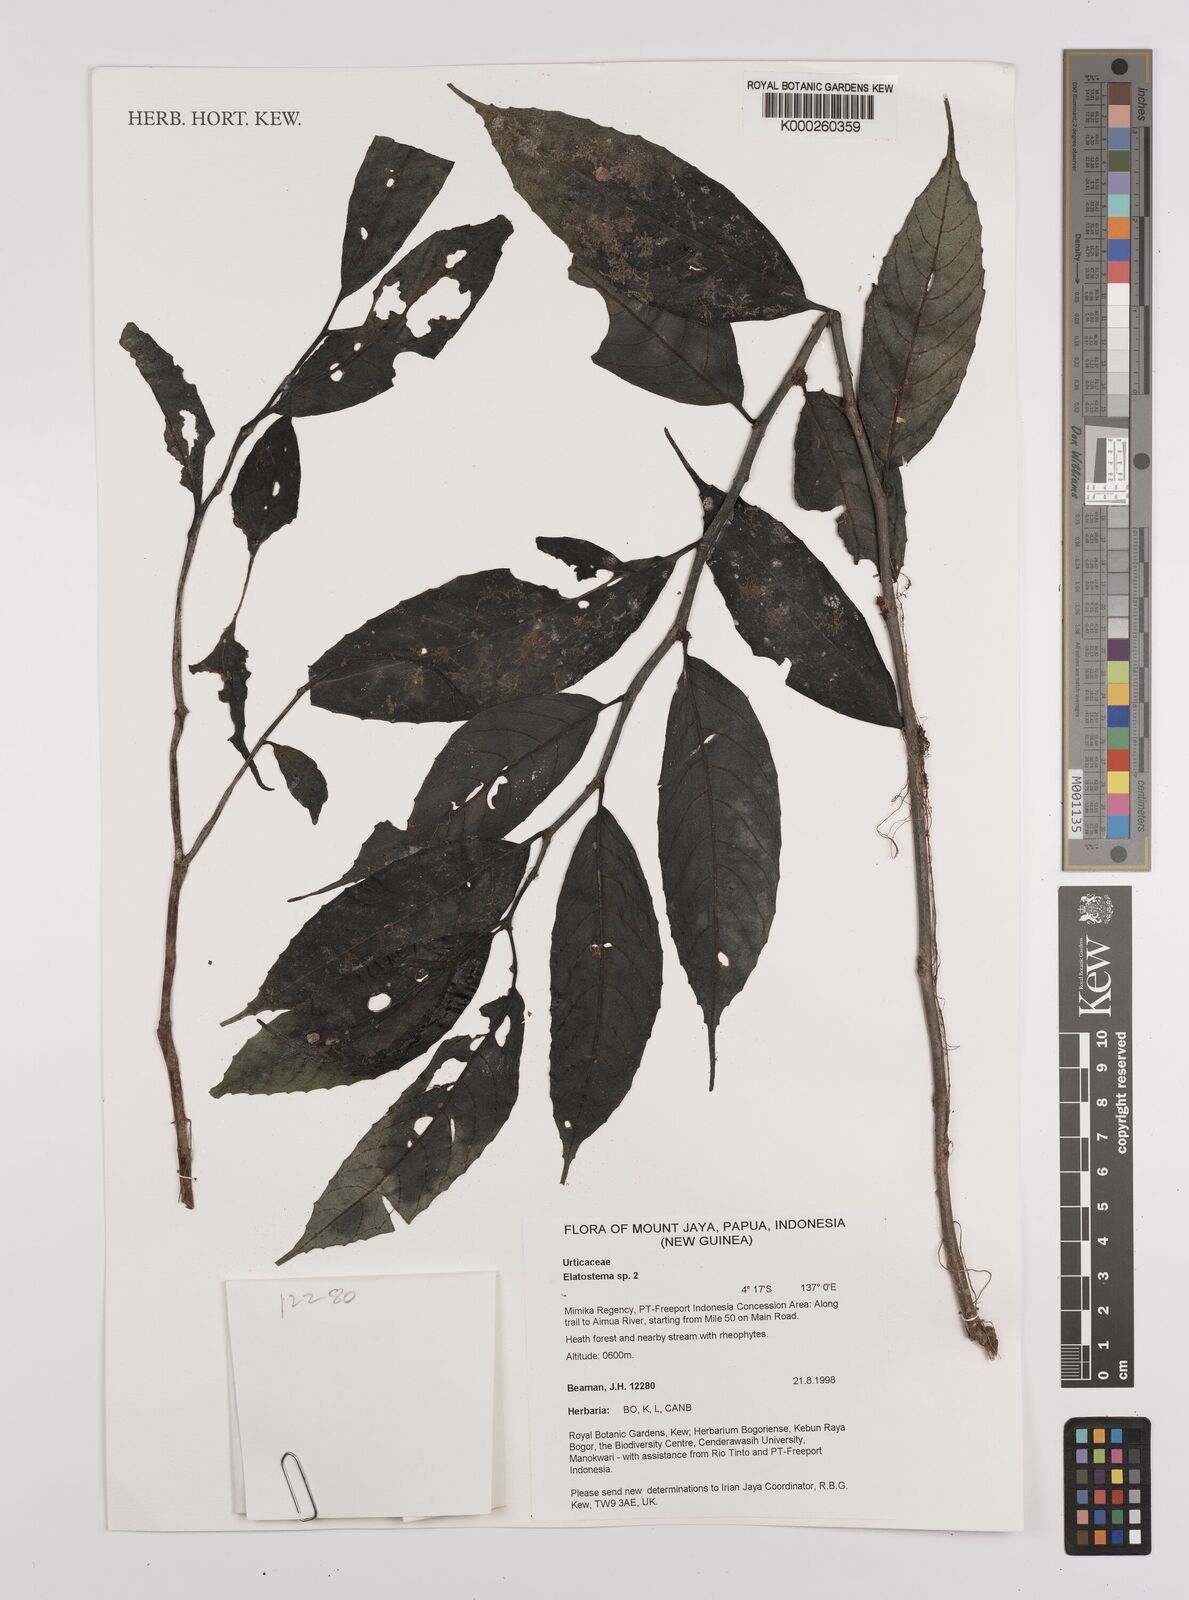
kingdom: Plantae
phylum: Tracheophyta
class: Magnoliopsida
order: Rosales
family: Urticaceae
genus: Elatostema
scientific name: Elatostema
